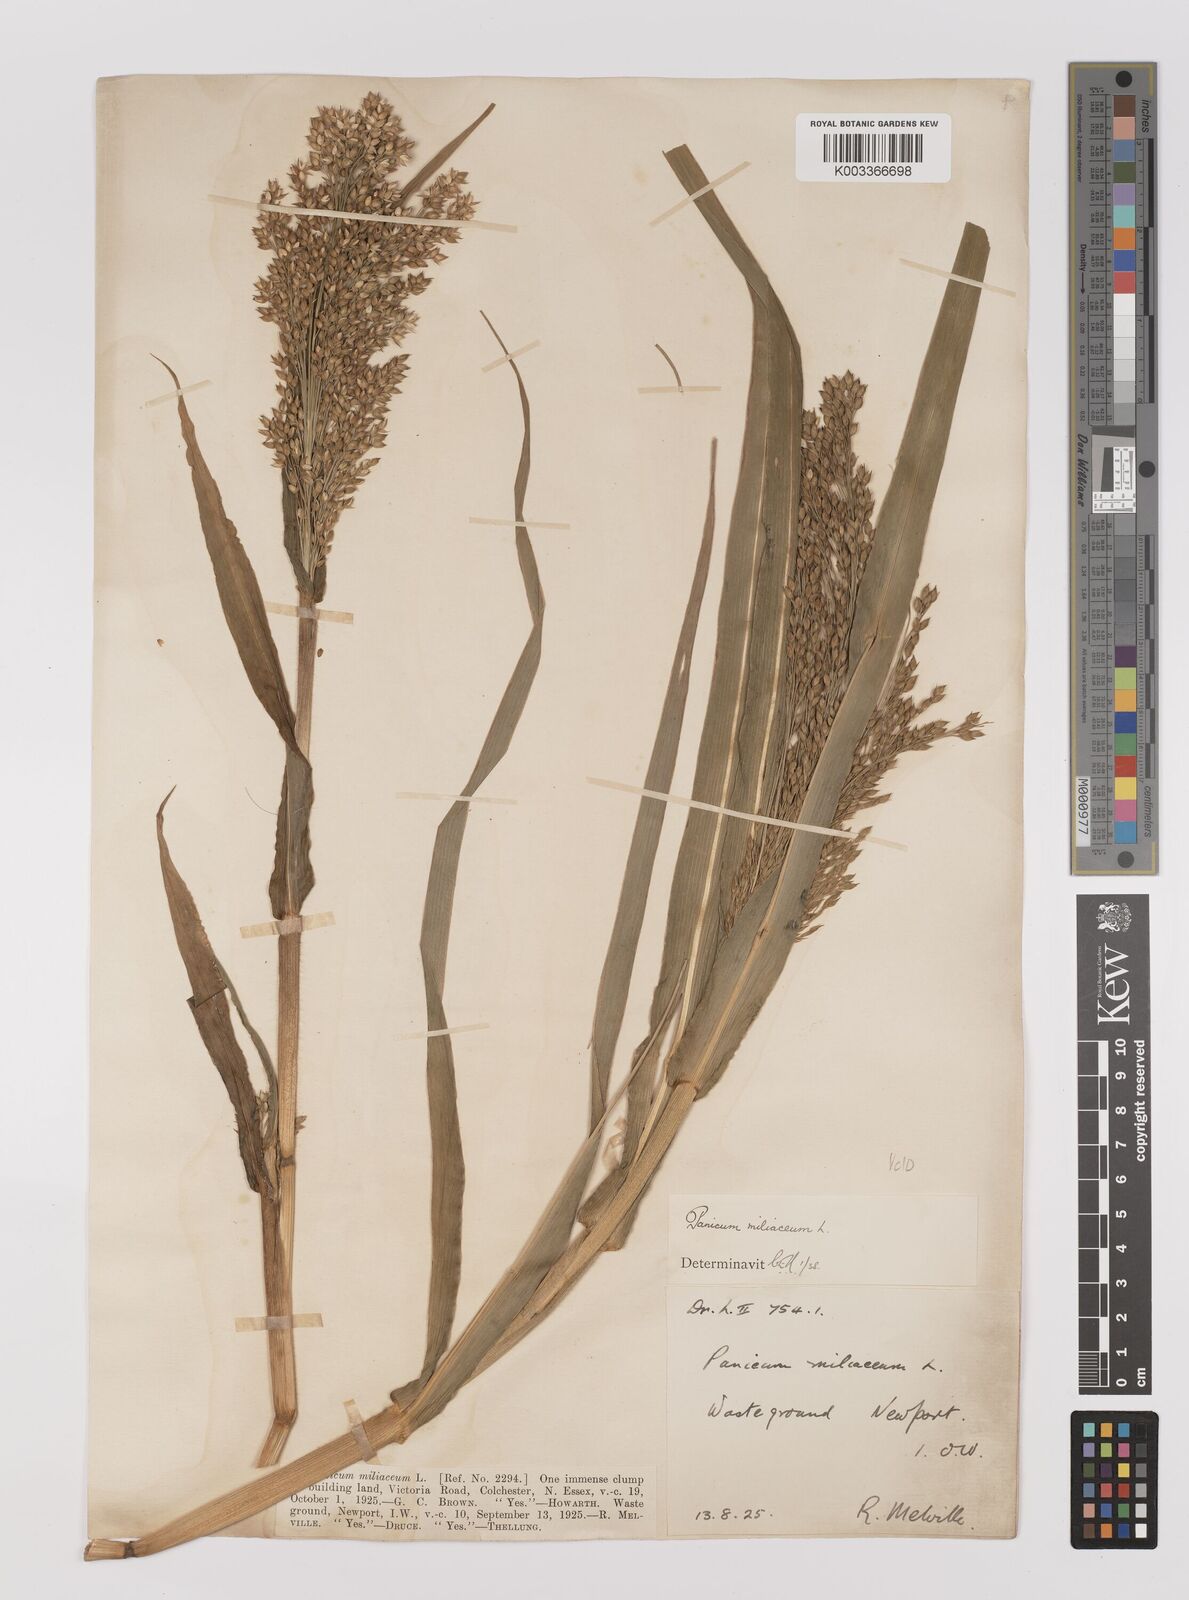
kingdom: Plantae
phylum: Tracheophyta
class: Liliopsida
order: Poales
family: Poaceae
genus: Panicum
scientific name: Panicum miliaceum
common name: Common millet
